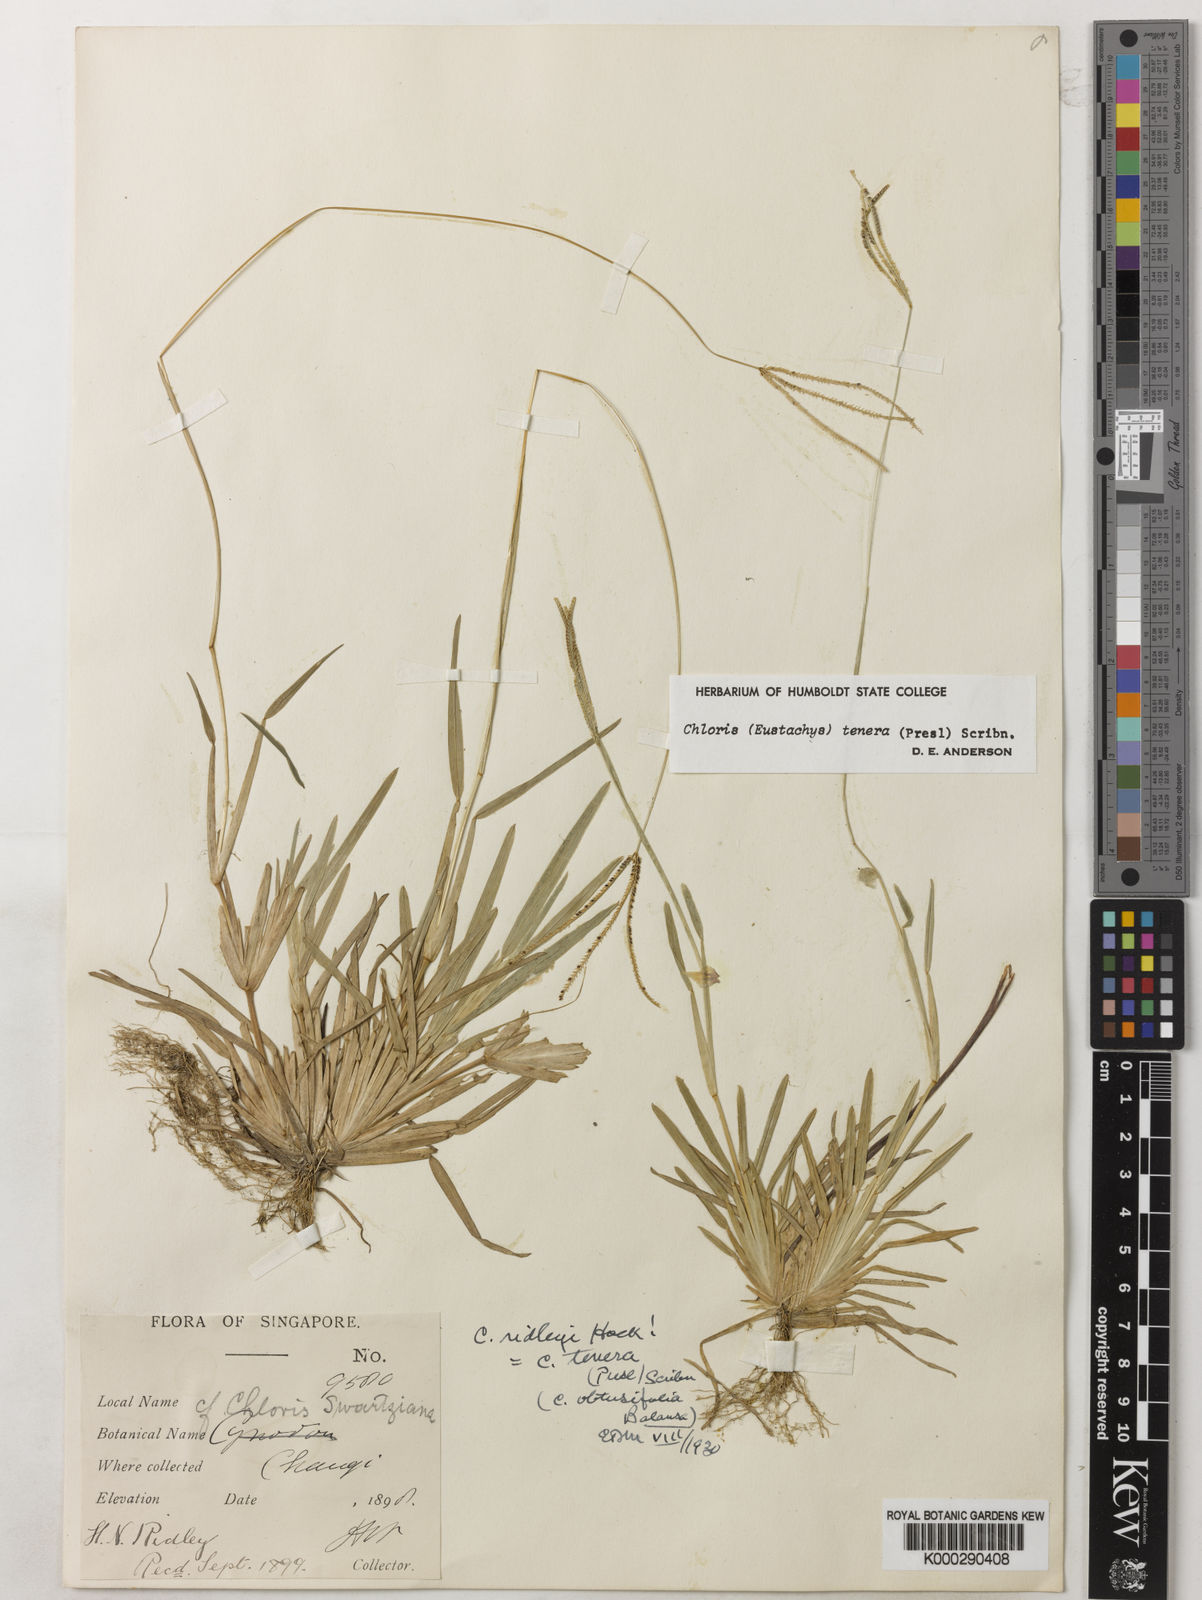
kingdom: Plantae
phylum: Tracheophyta
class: Liliopsida
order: Poales
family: Poaceae
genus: Eustachys
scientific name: Eustachys tenera
